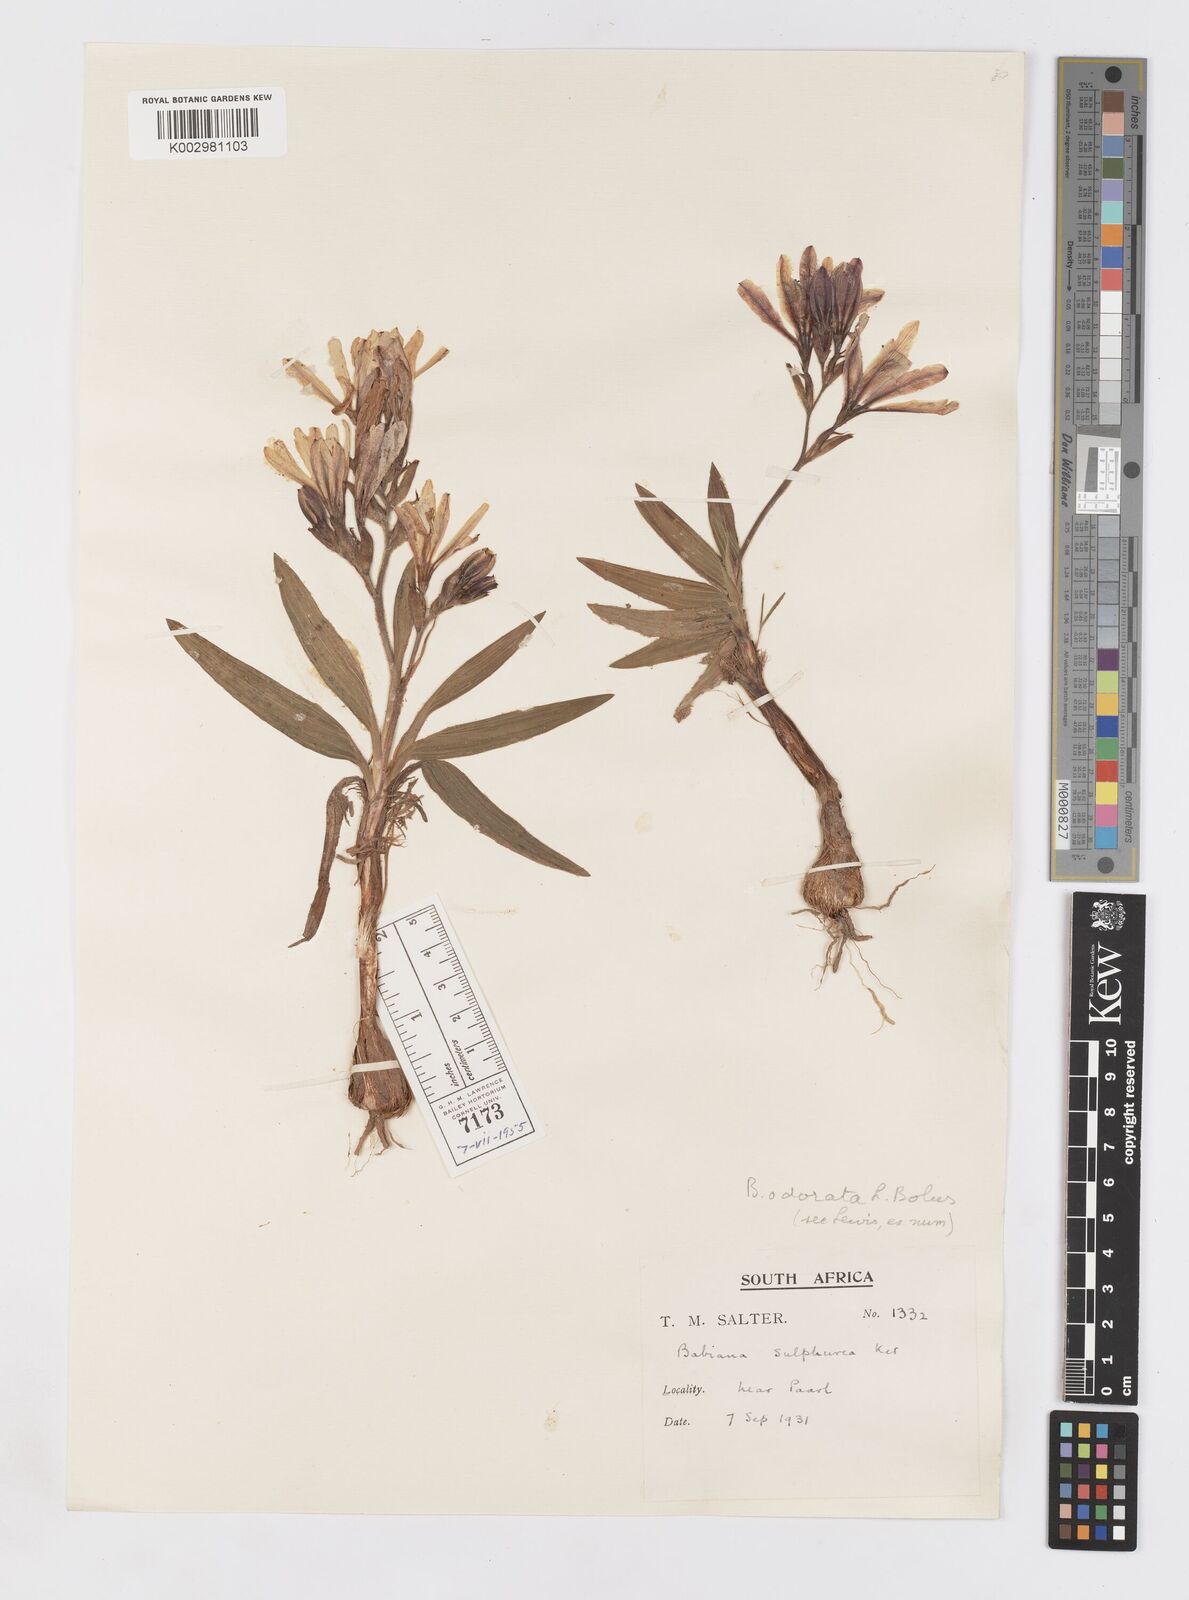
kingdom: Plantae
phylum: Tracheophyta
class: Liliopsida
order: Asparagales
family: Iridaceae
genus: Babiana
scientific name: Babiana odorata
